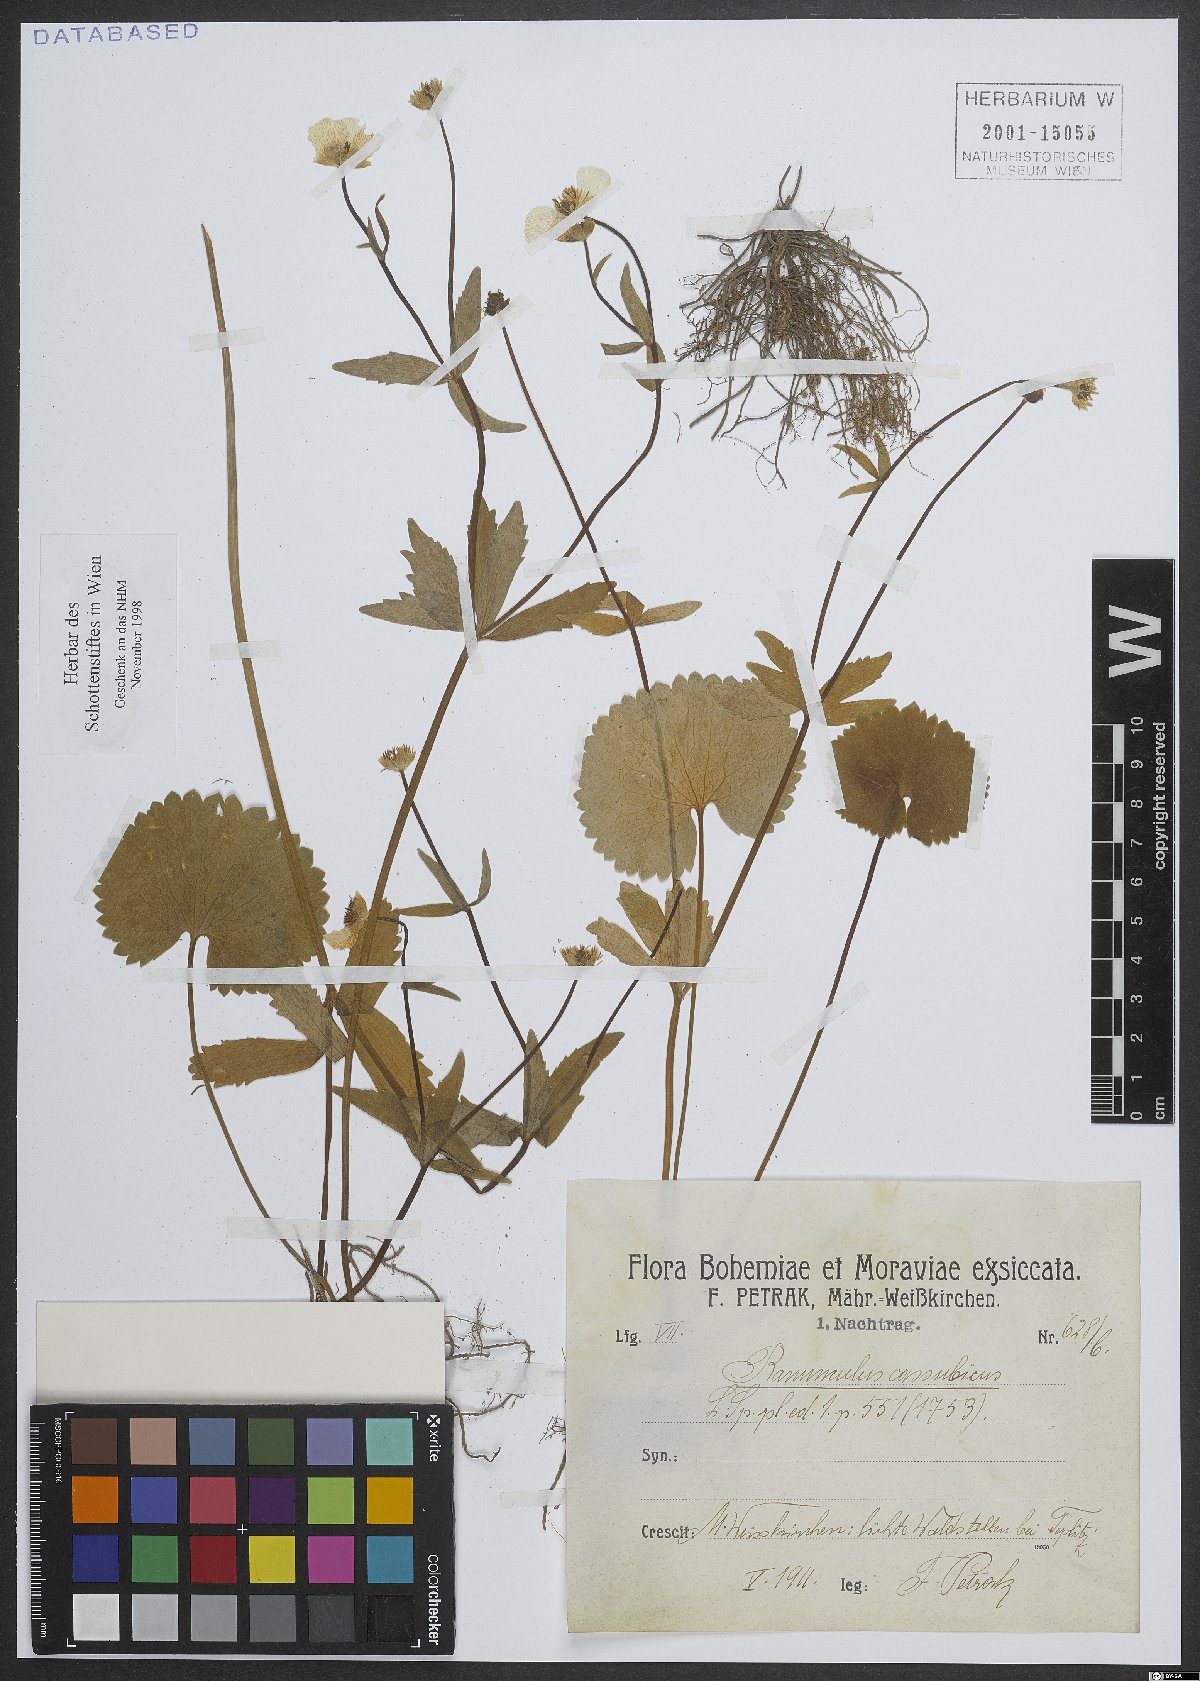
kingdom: Plantae
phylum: Tracheophyta
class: Magnoliopsida
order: Ranunculales
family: Ranunculaceae
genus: Ranunculus
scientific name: Ranunculus cassubicus
